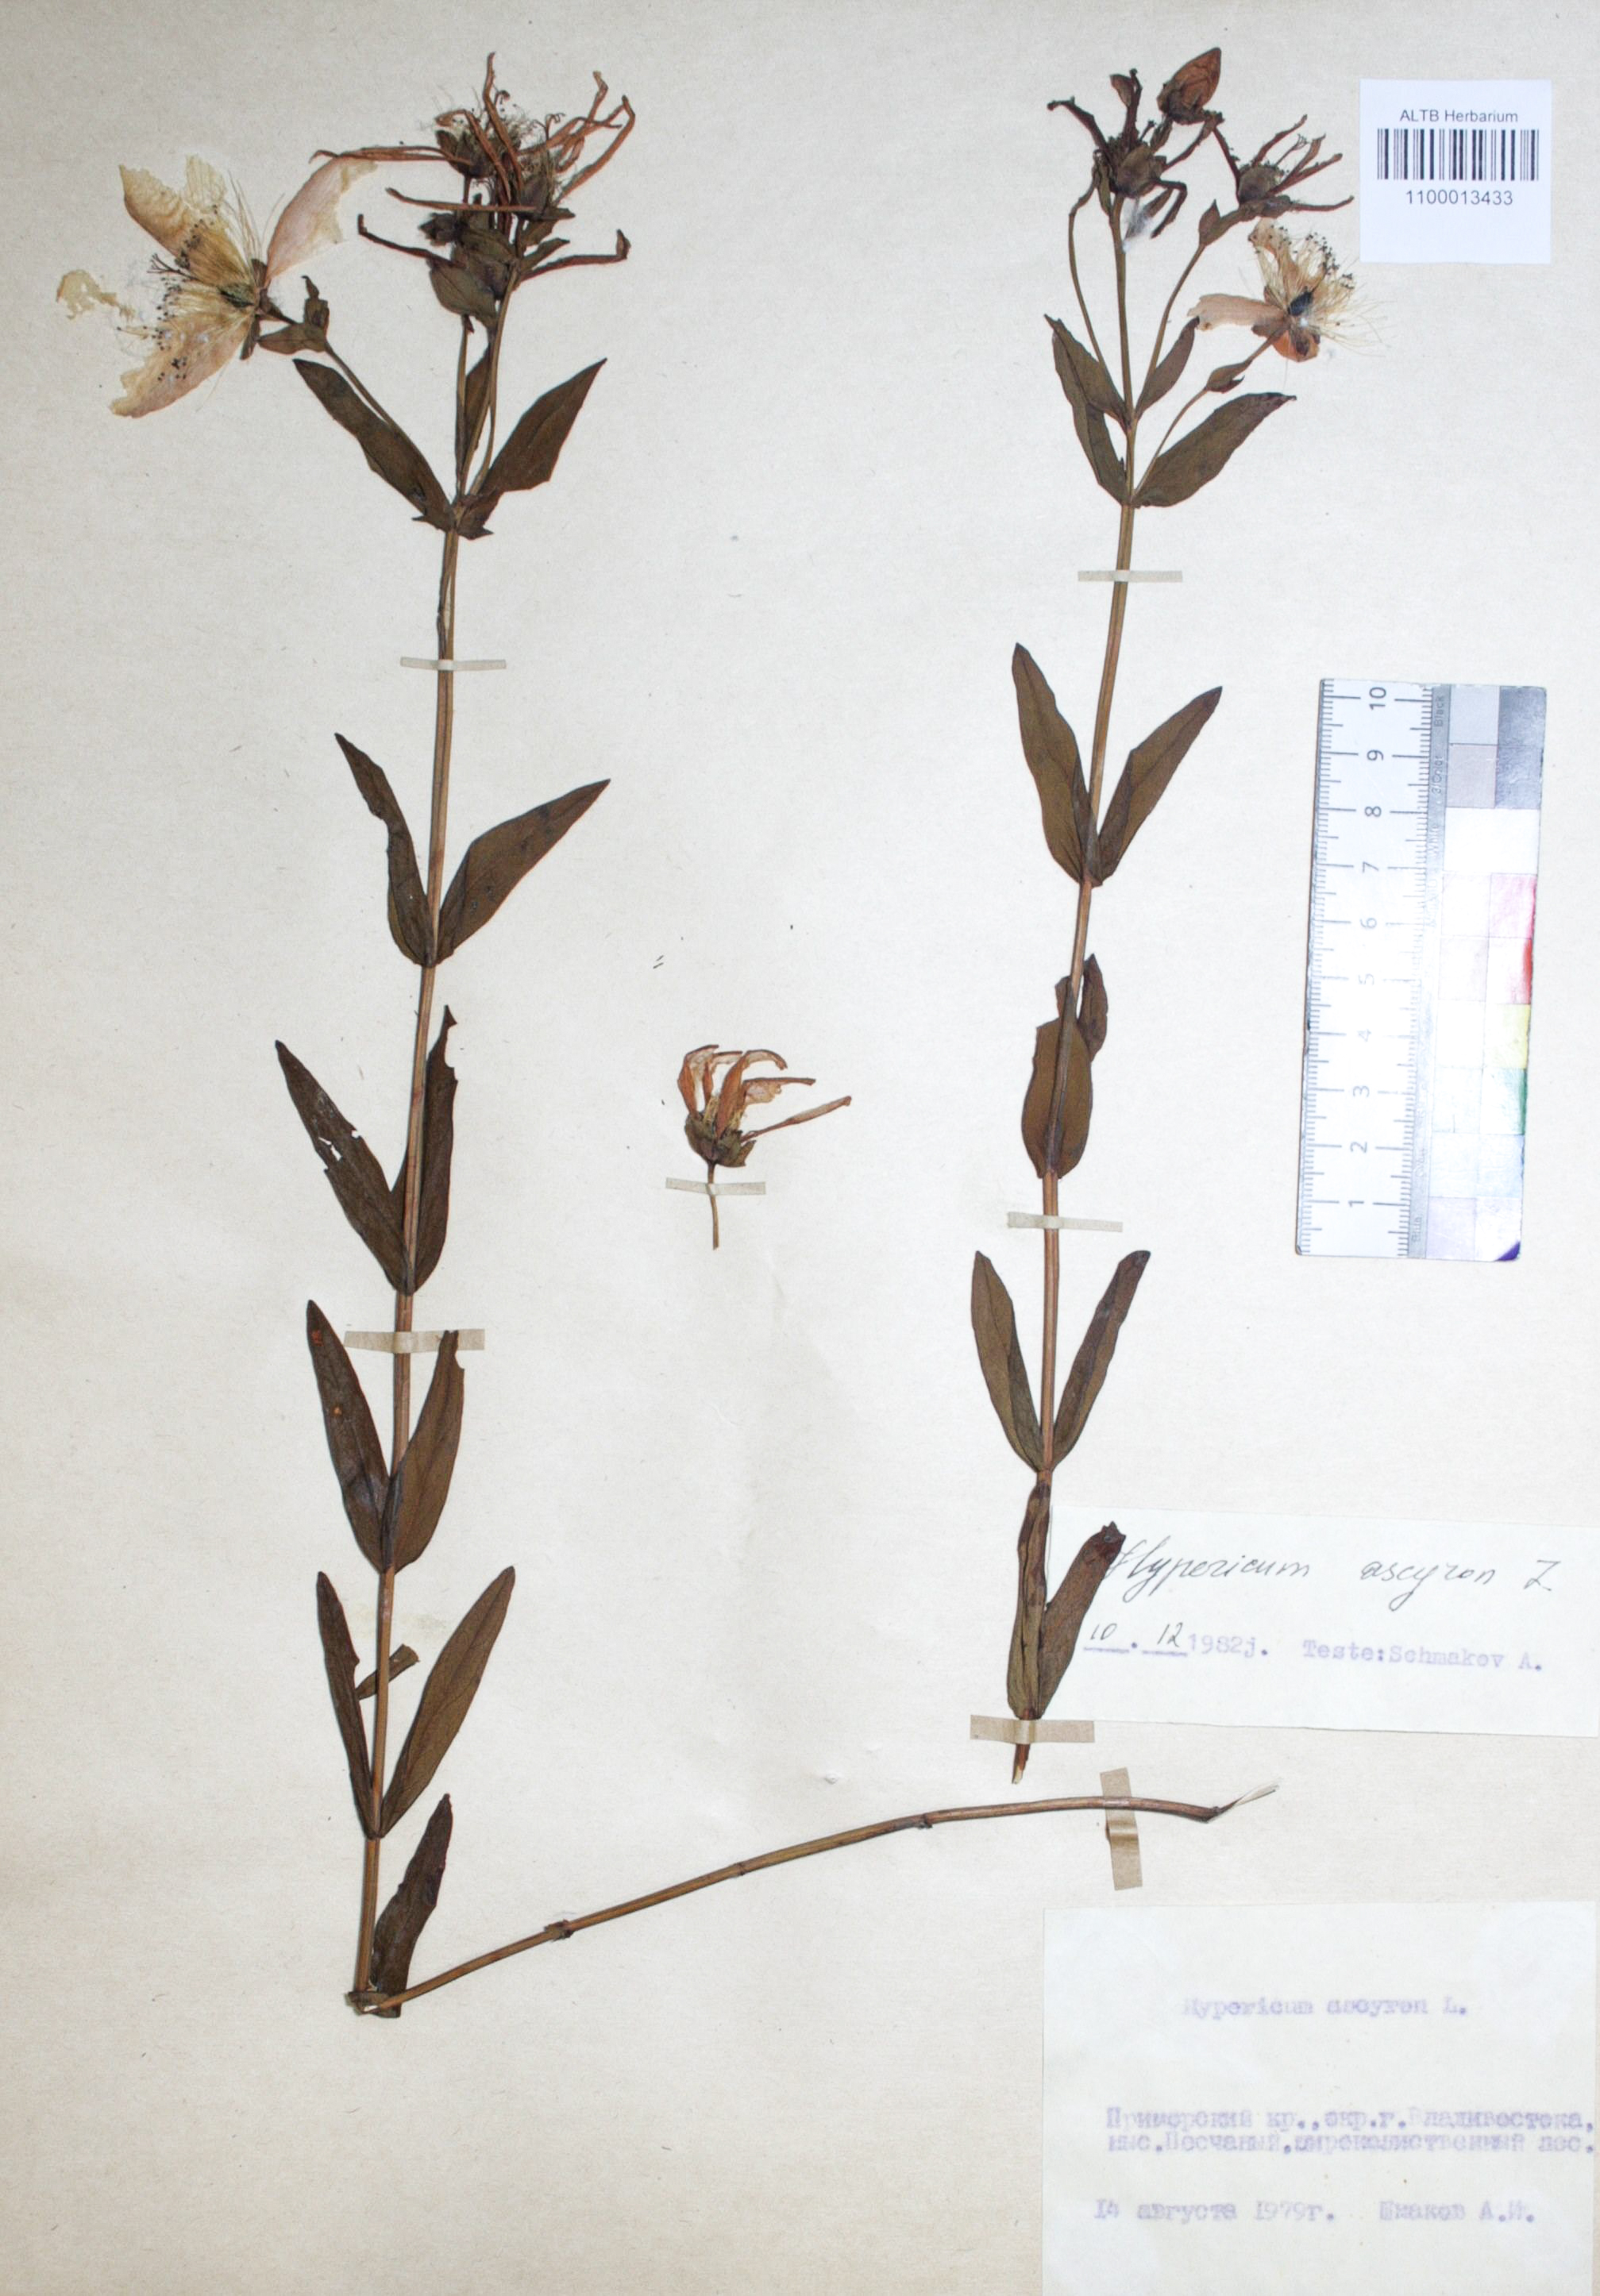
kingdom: Plantae
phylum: Tracheophyta
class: Magnoliopsida
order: Malpighiales
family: Hypericaceae
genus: Hypericum
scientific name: Hypericum ascyron
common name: Giant st. john's-wort
